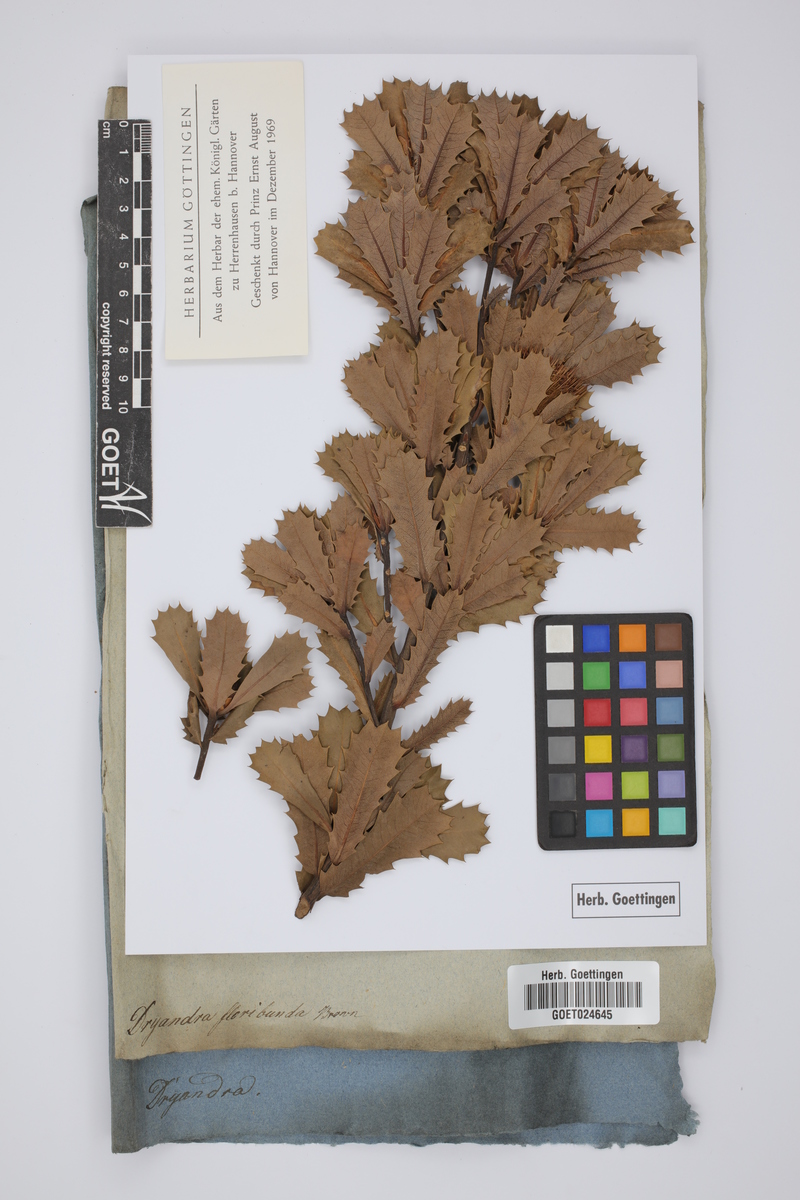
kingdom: Plantae
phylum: Tracheophyta
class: Magnoliopsida
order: Proteales
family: Proteaceae
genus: Banksia
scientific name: Banksia sessilis
